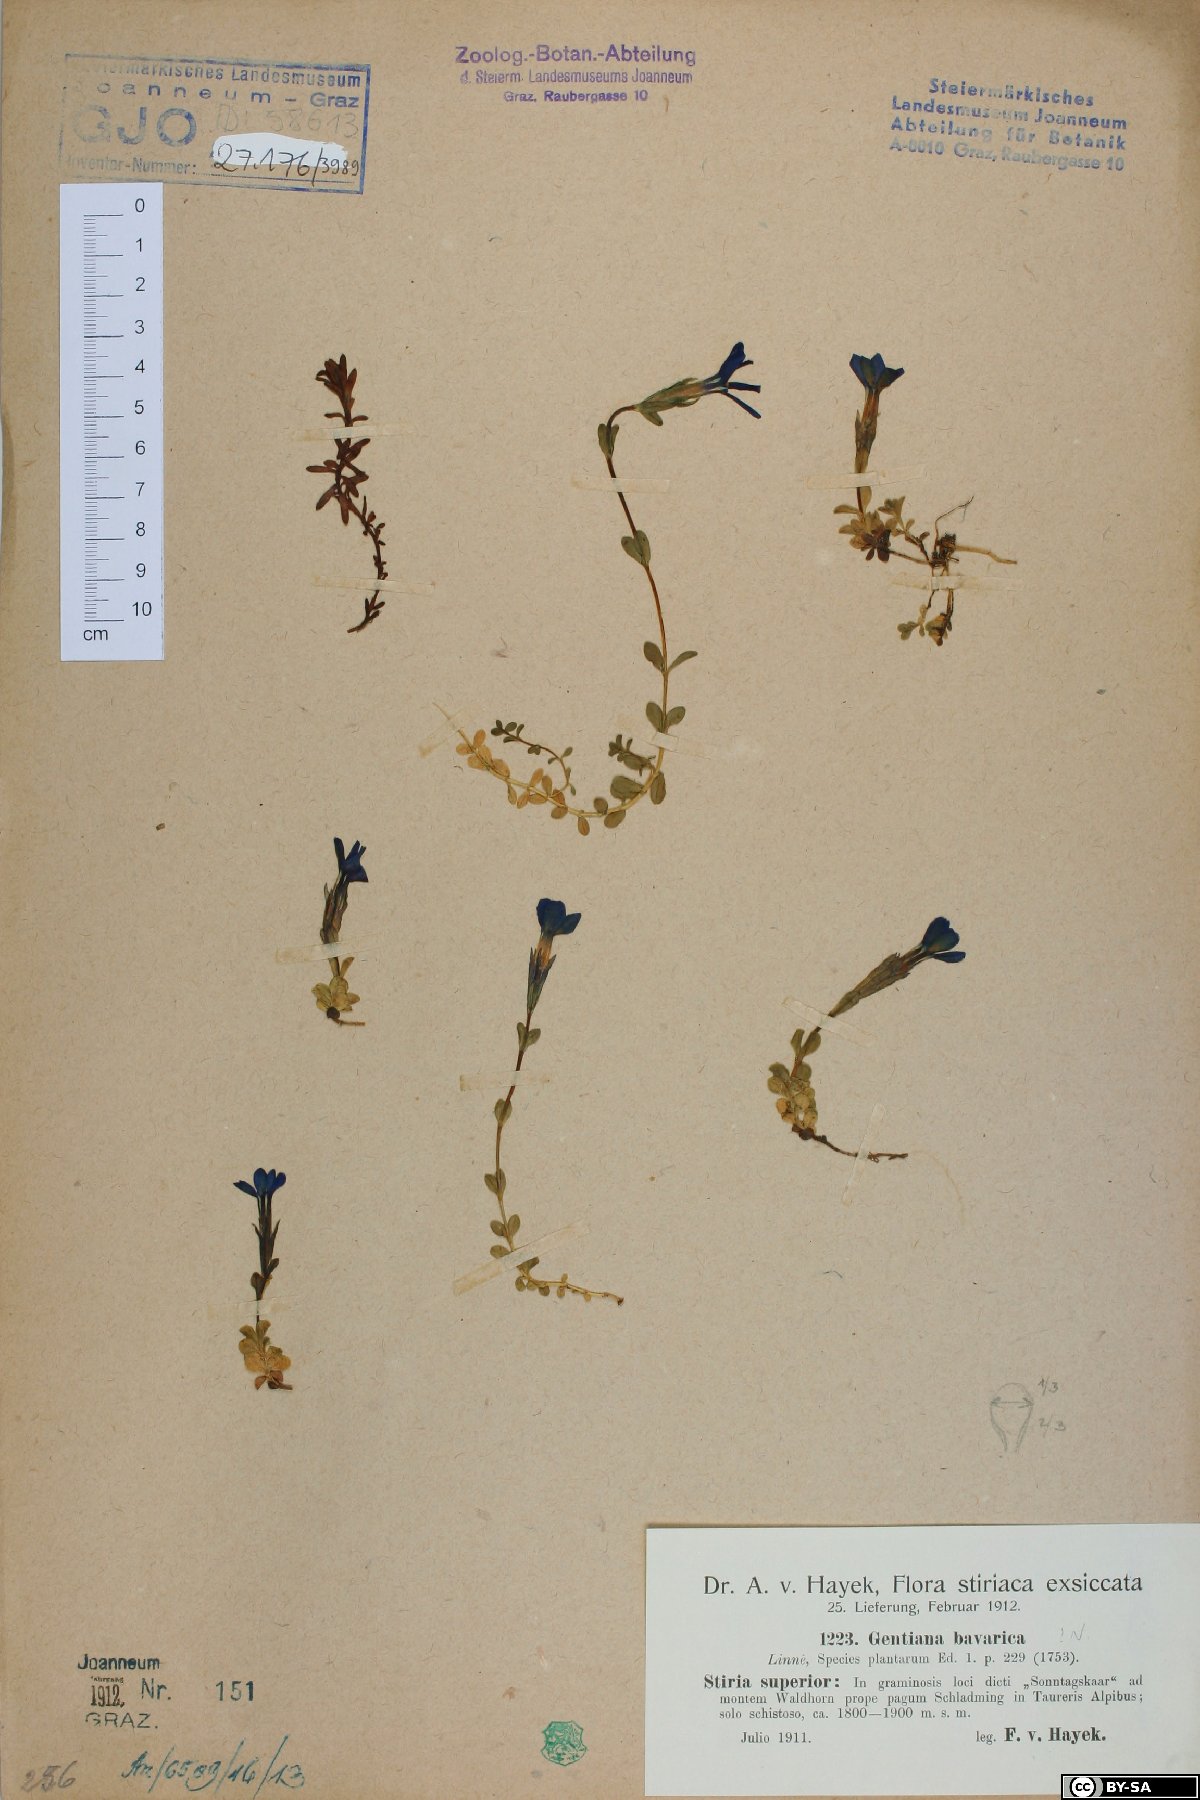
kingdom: Plantae
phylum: Tracheophyta
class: Magnoliopsida
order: Gentianales
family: Gentianaceae
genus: Gentiana
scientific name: Gentiana bavarica
